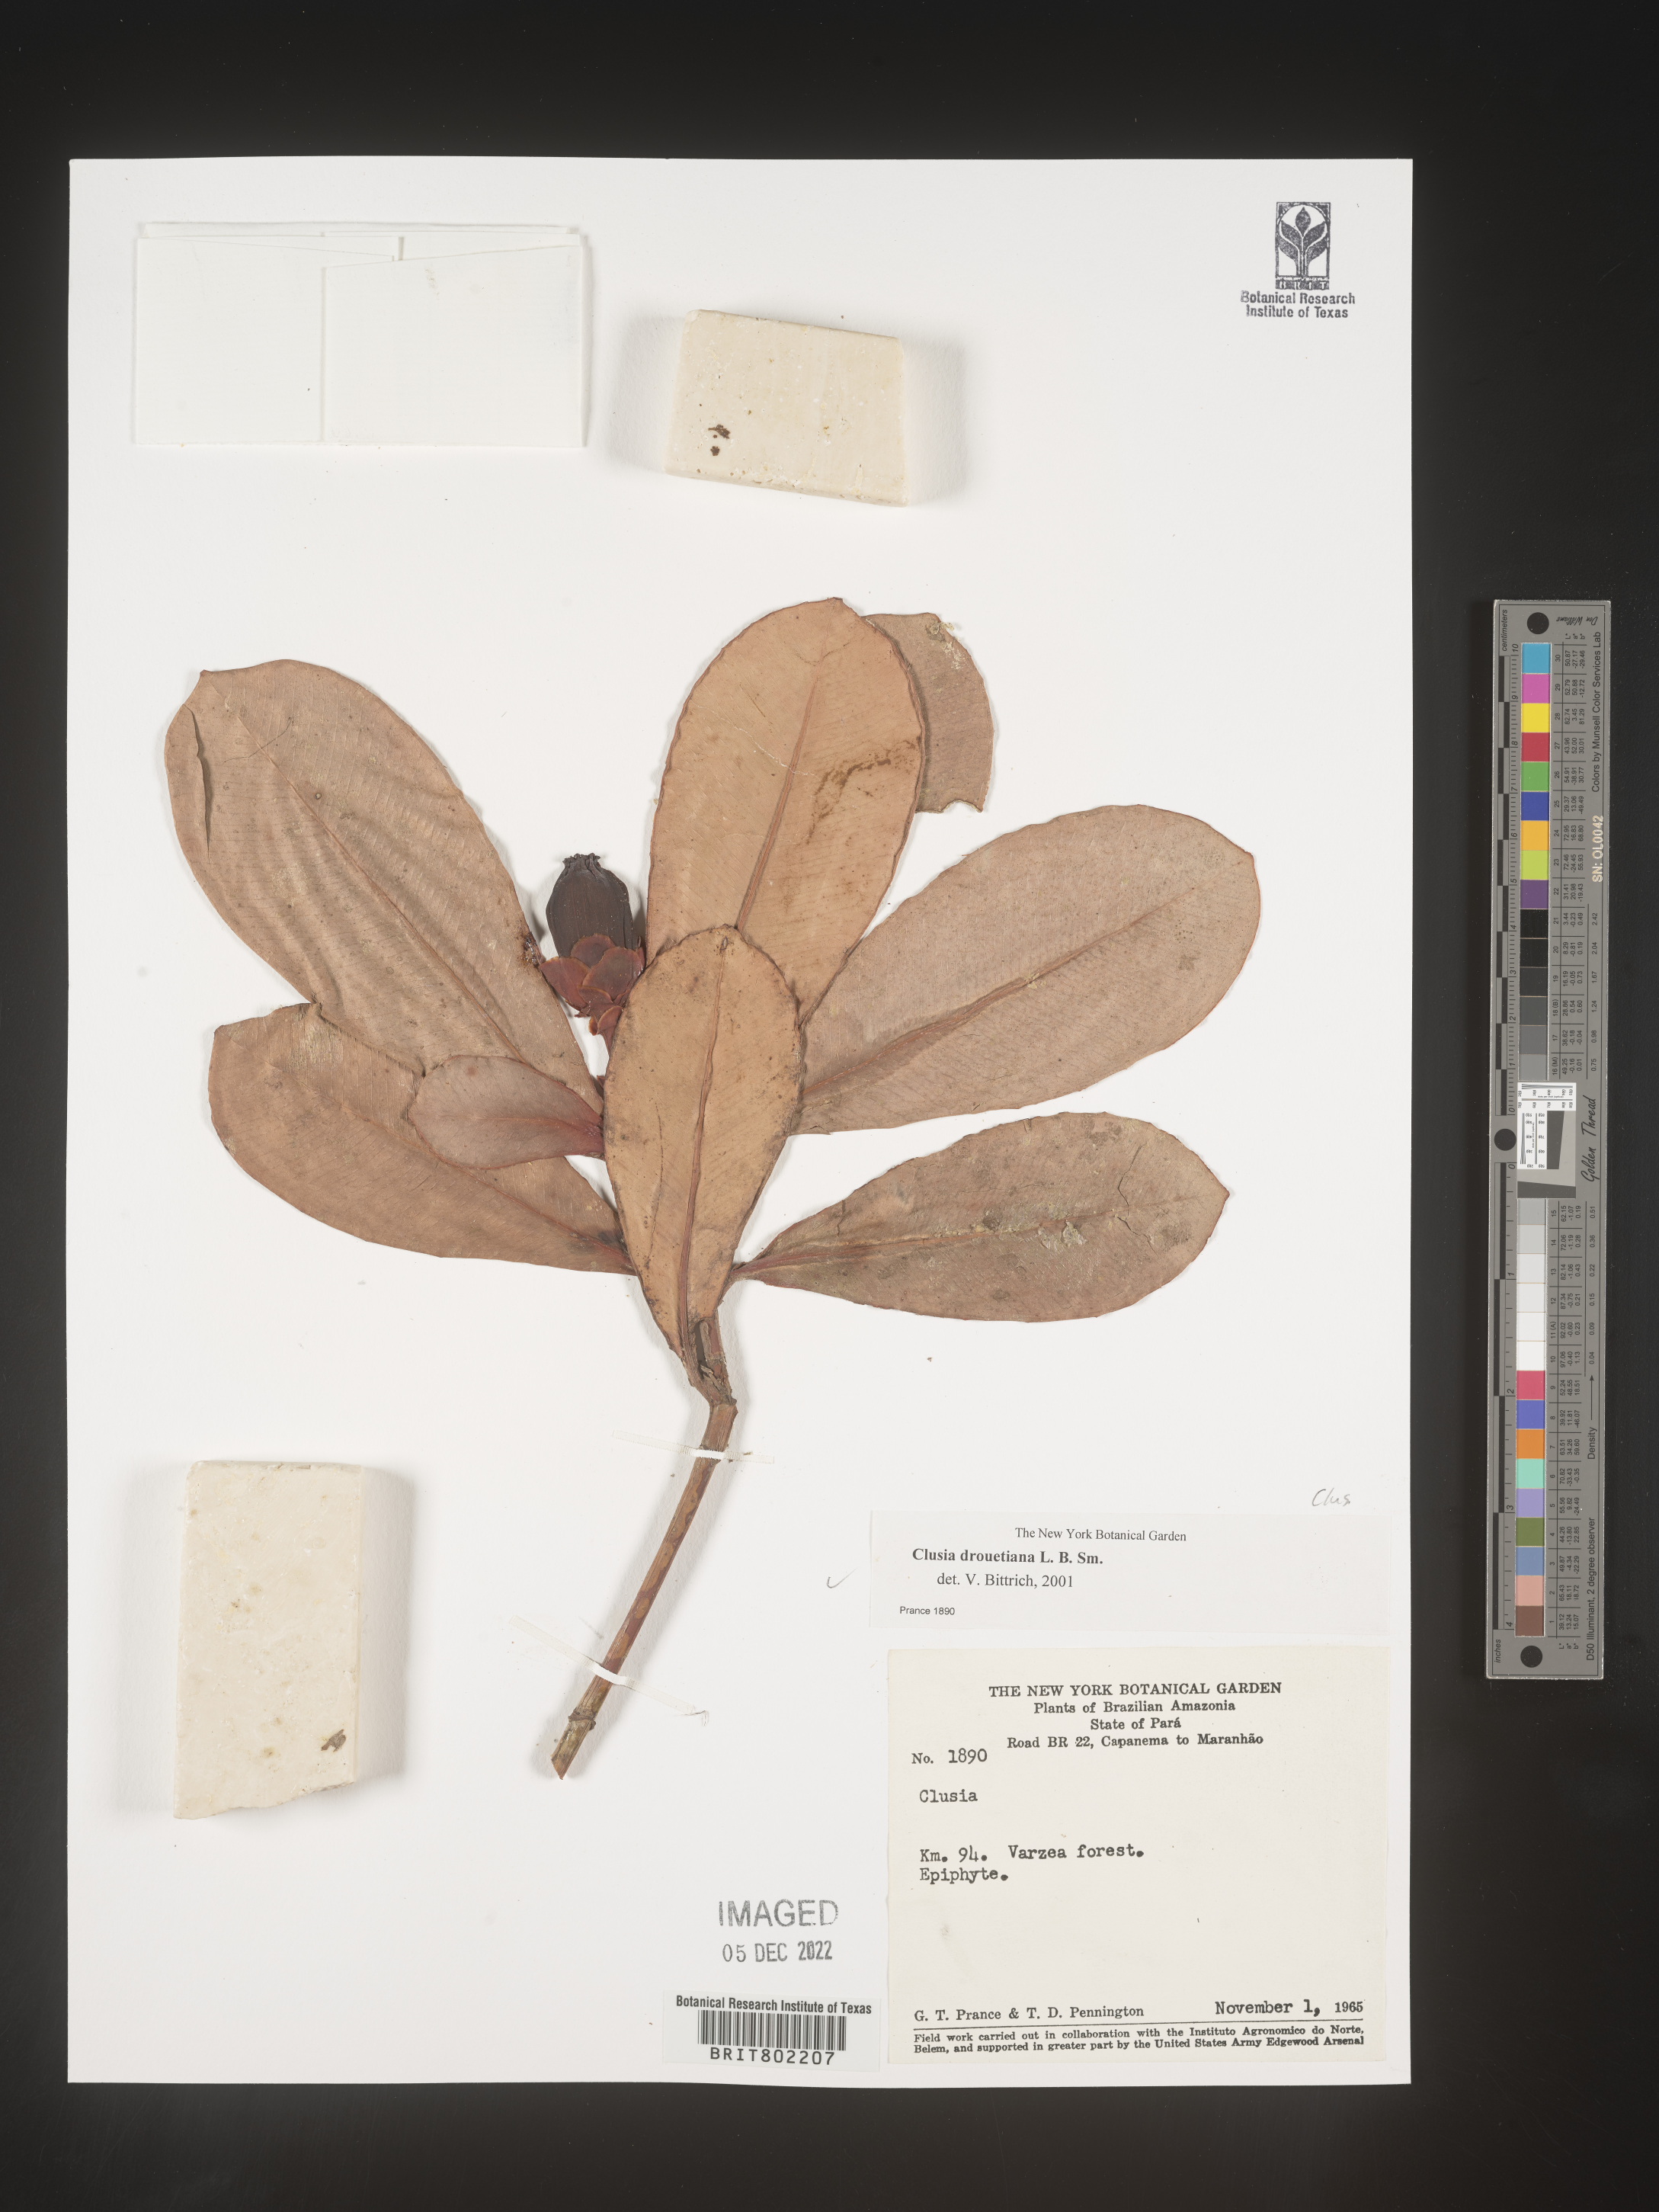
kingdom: Plantae
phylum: Tracheophyta
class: Magnoliopsida
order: Malpighiales
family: Clusiaceae
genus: Clusia
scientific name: Clusia
